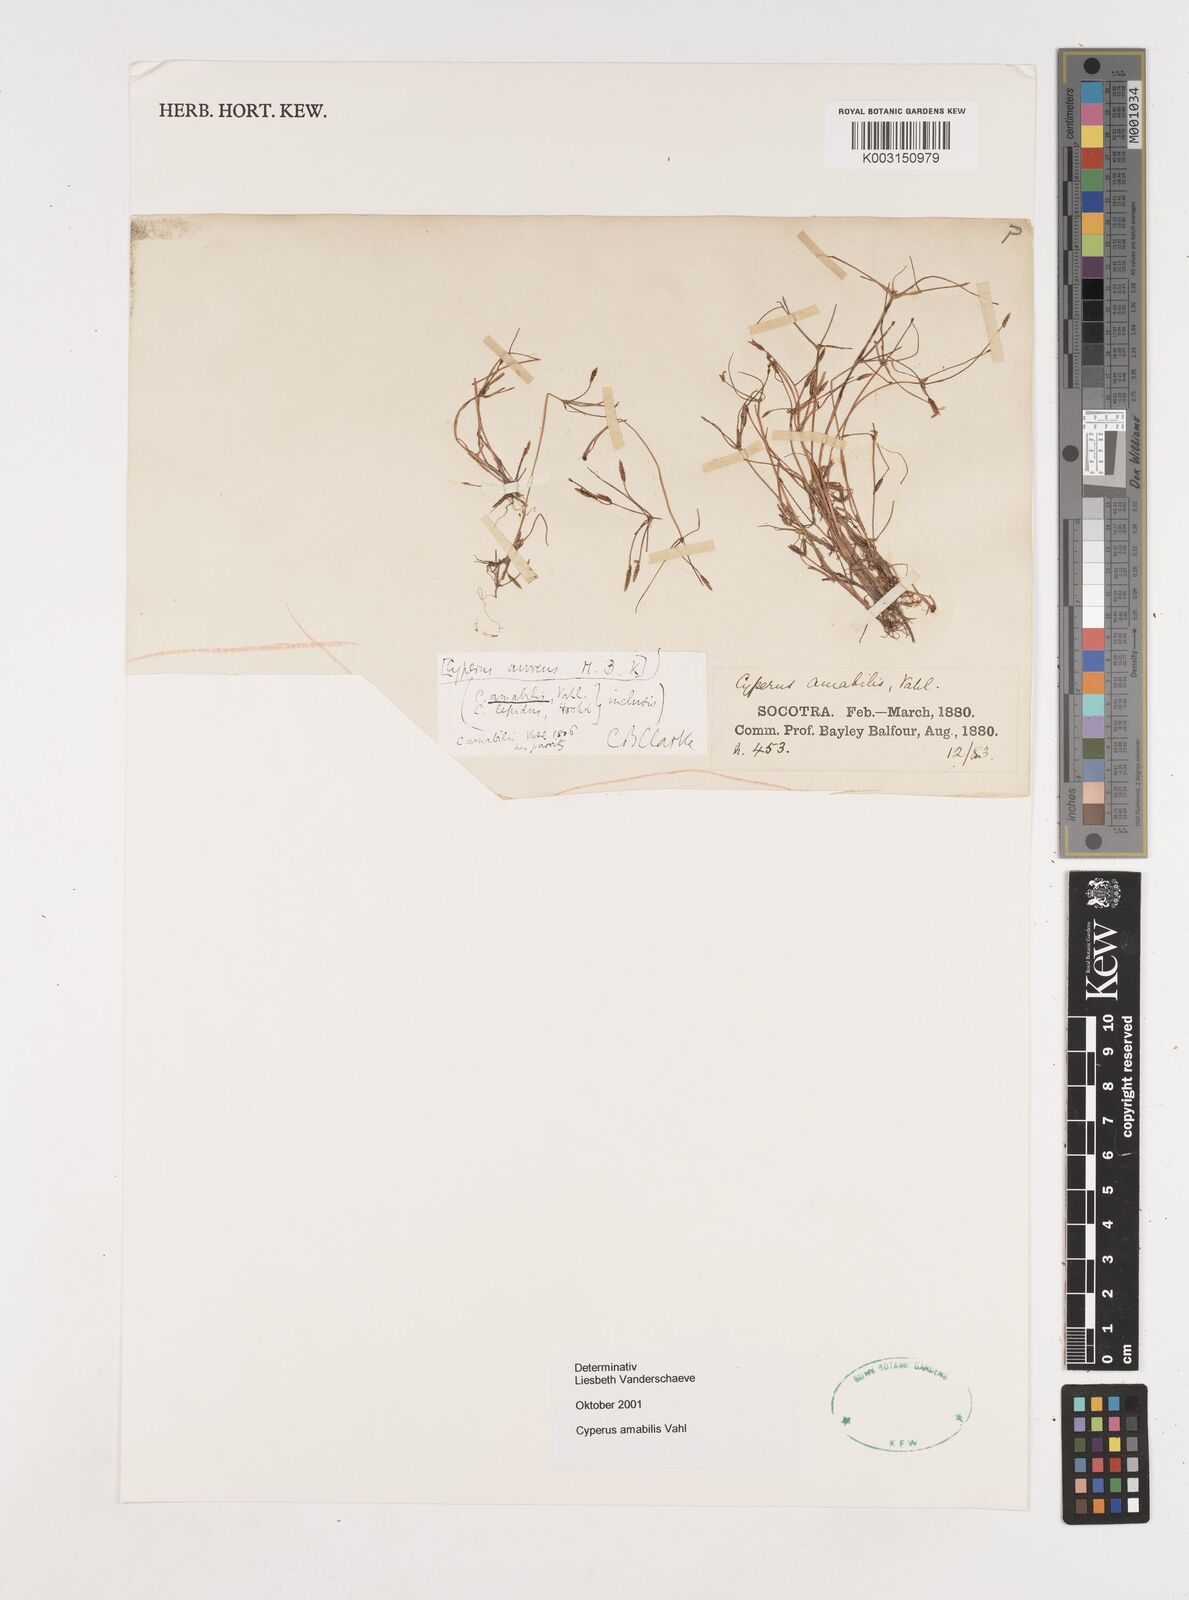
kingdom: Plantae
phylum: Tracheophyta
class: Liliopsida
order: Poales
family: Cyperaceae
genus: Cyperus
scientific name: Cyperus amabilis
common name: Foothill flat sedge
